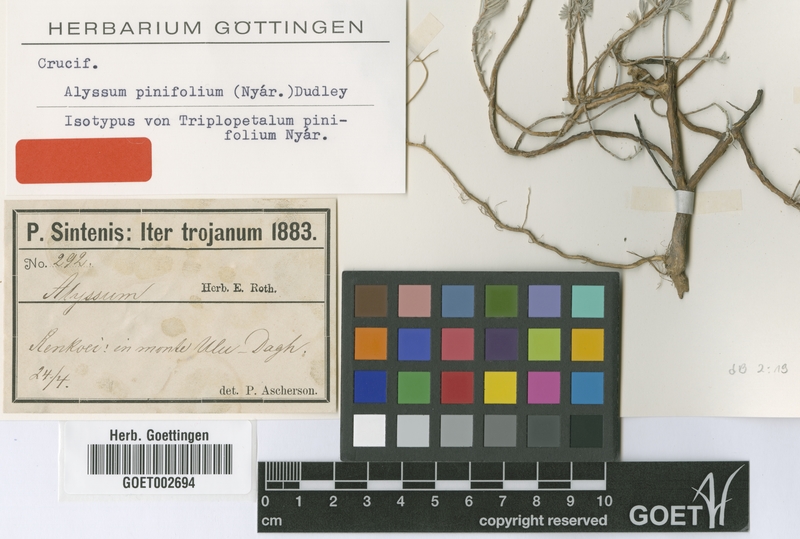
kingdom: Plantae
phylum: Tracheophyta
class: Magnoliopsida
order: Brassicales
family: Brassicaceae
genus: Odontarrhena
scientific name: Odontarrhena pinifolia
